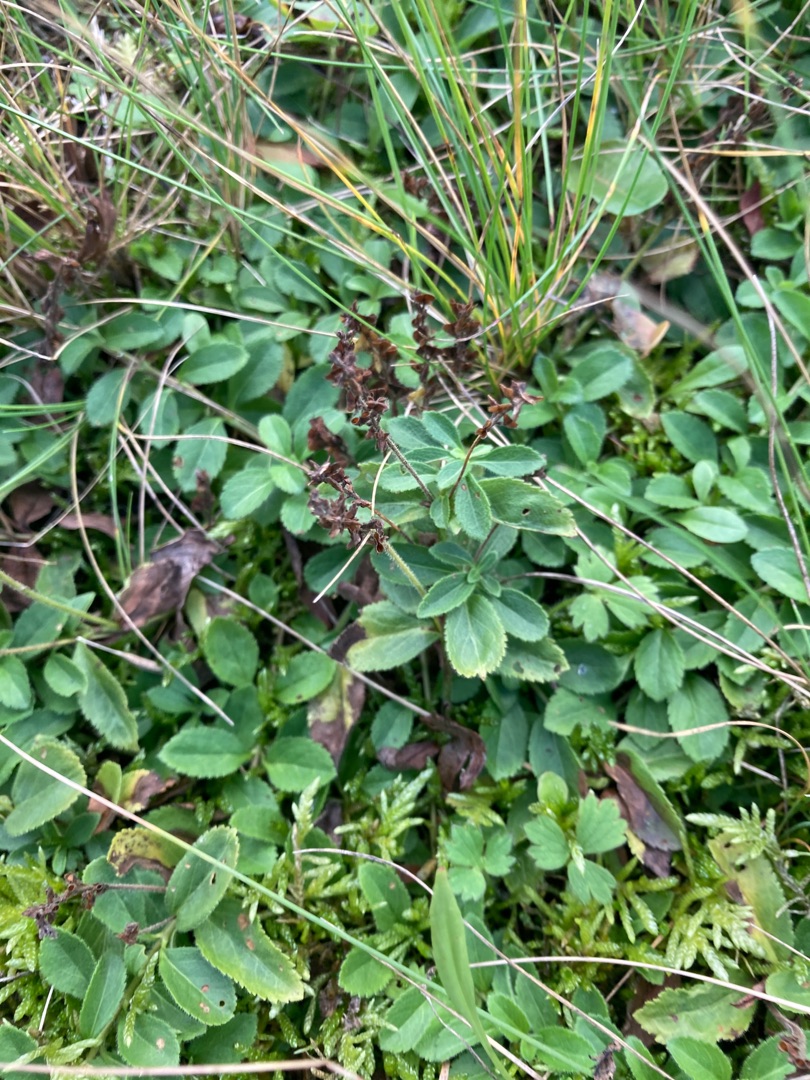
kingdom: Plantae
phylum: Tracheophyta
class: Magnoliopsida
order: Lamiales
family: Plantaginaceae
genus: Veronica
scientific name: Veronica officinalis
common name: Læge-ærenpris
